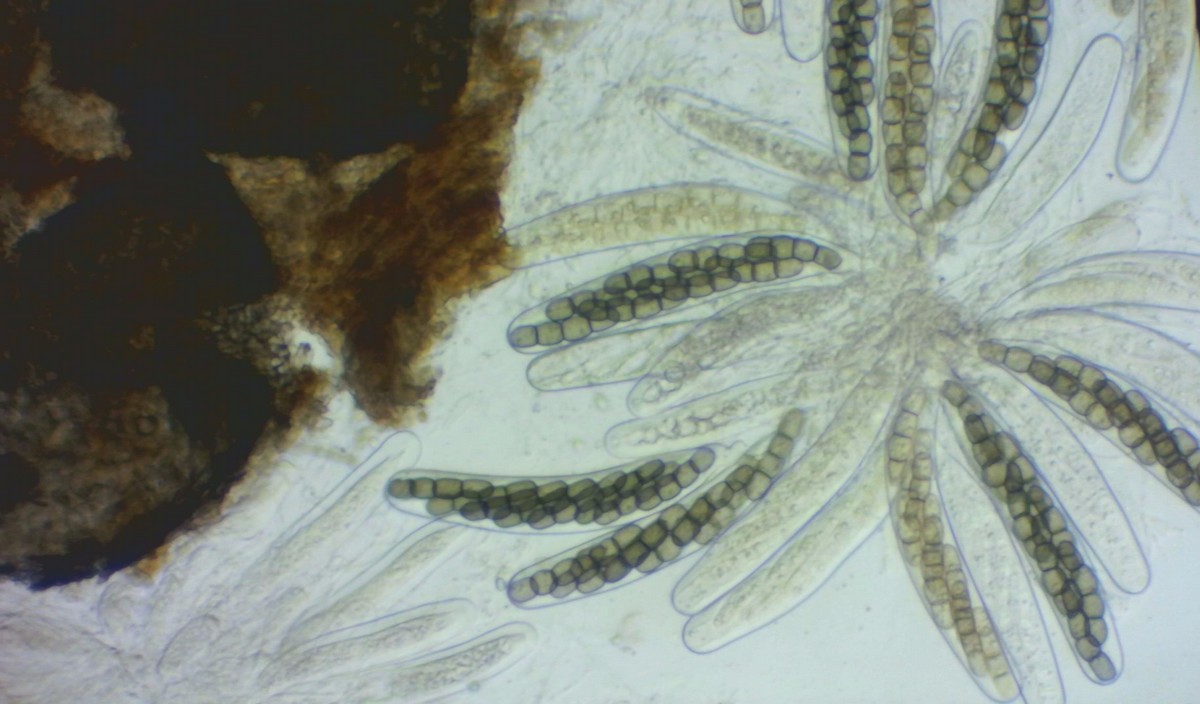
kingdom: Fungi
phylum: Ascomycota
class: Dothideomycetes
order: Pleosporales
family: Sporormiaceae
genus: Sporormiella
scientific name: Sporormiella intermedia
